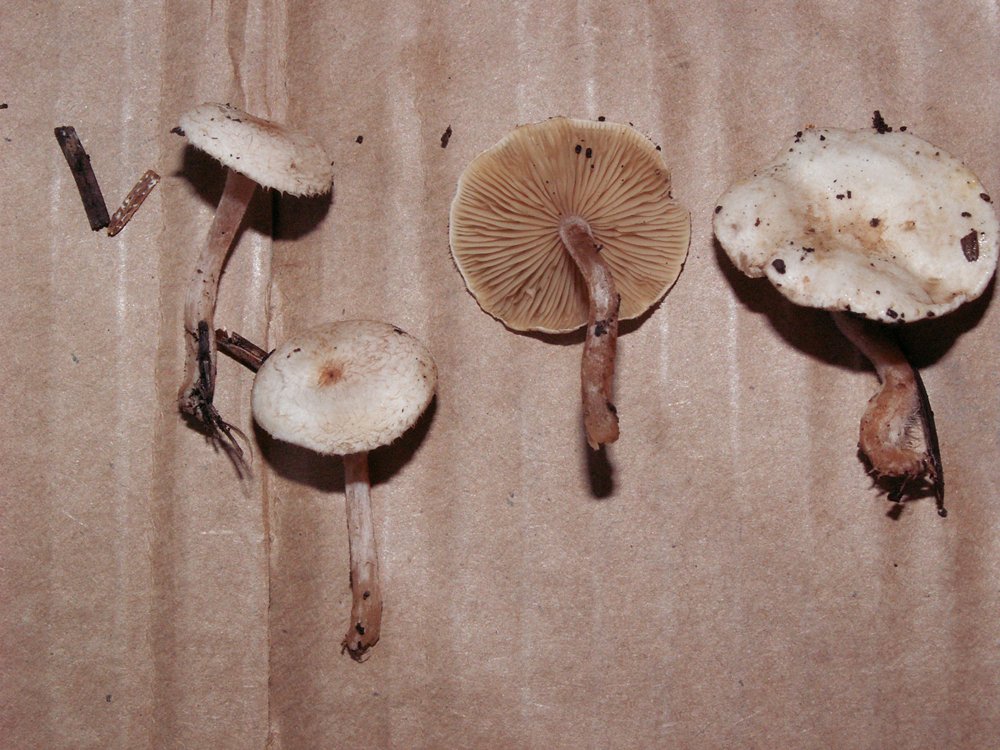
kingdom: Fungi
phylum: Basidiomycota
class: Agaricomycetes
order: Agaricales
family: Tricholomataceae
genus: Ripartites
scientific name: Ripartites tricholoma
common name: almindelig skæghat
